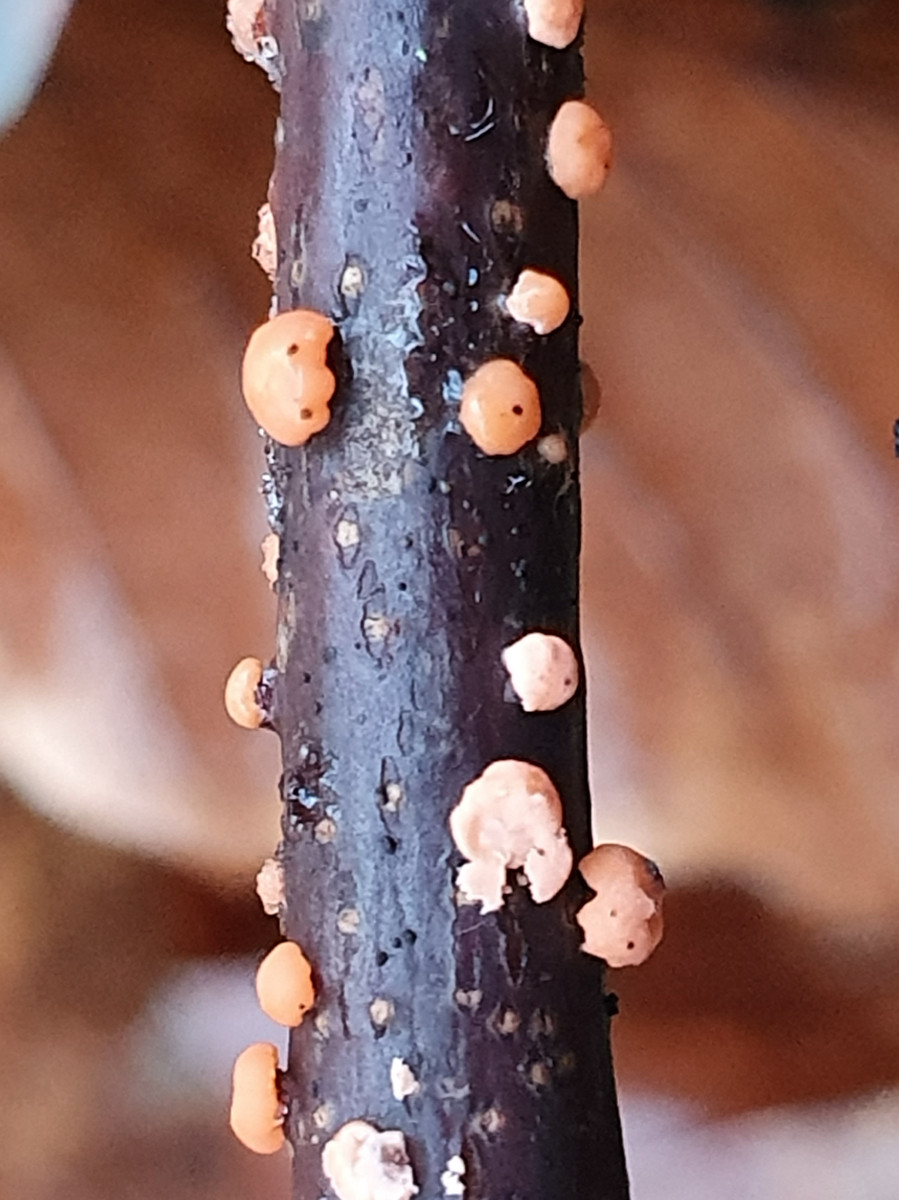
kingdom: Fungi
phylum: Ascomycota
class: Sordariomycetes
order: Hypocreales
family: Nectriaceae
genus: Nectria
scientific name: Nectria cinnabarina
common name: almindelig cinnobersvamp
